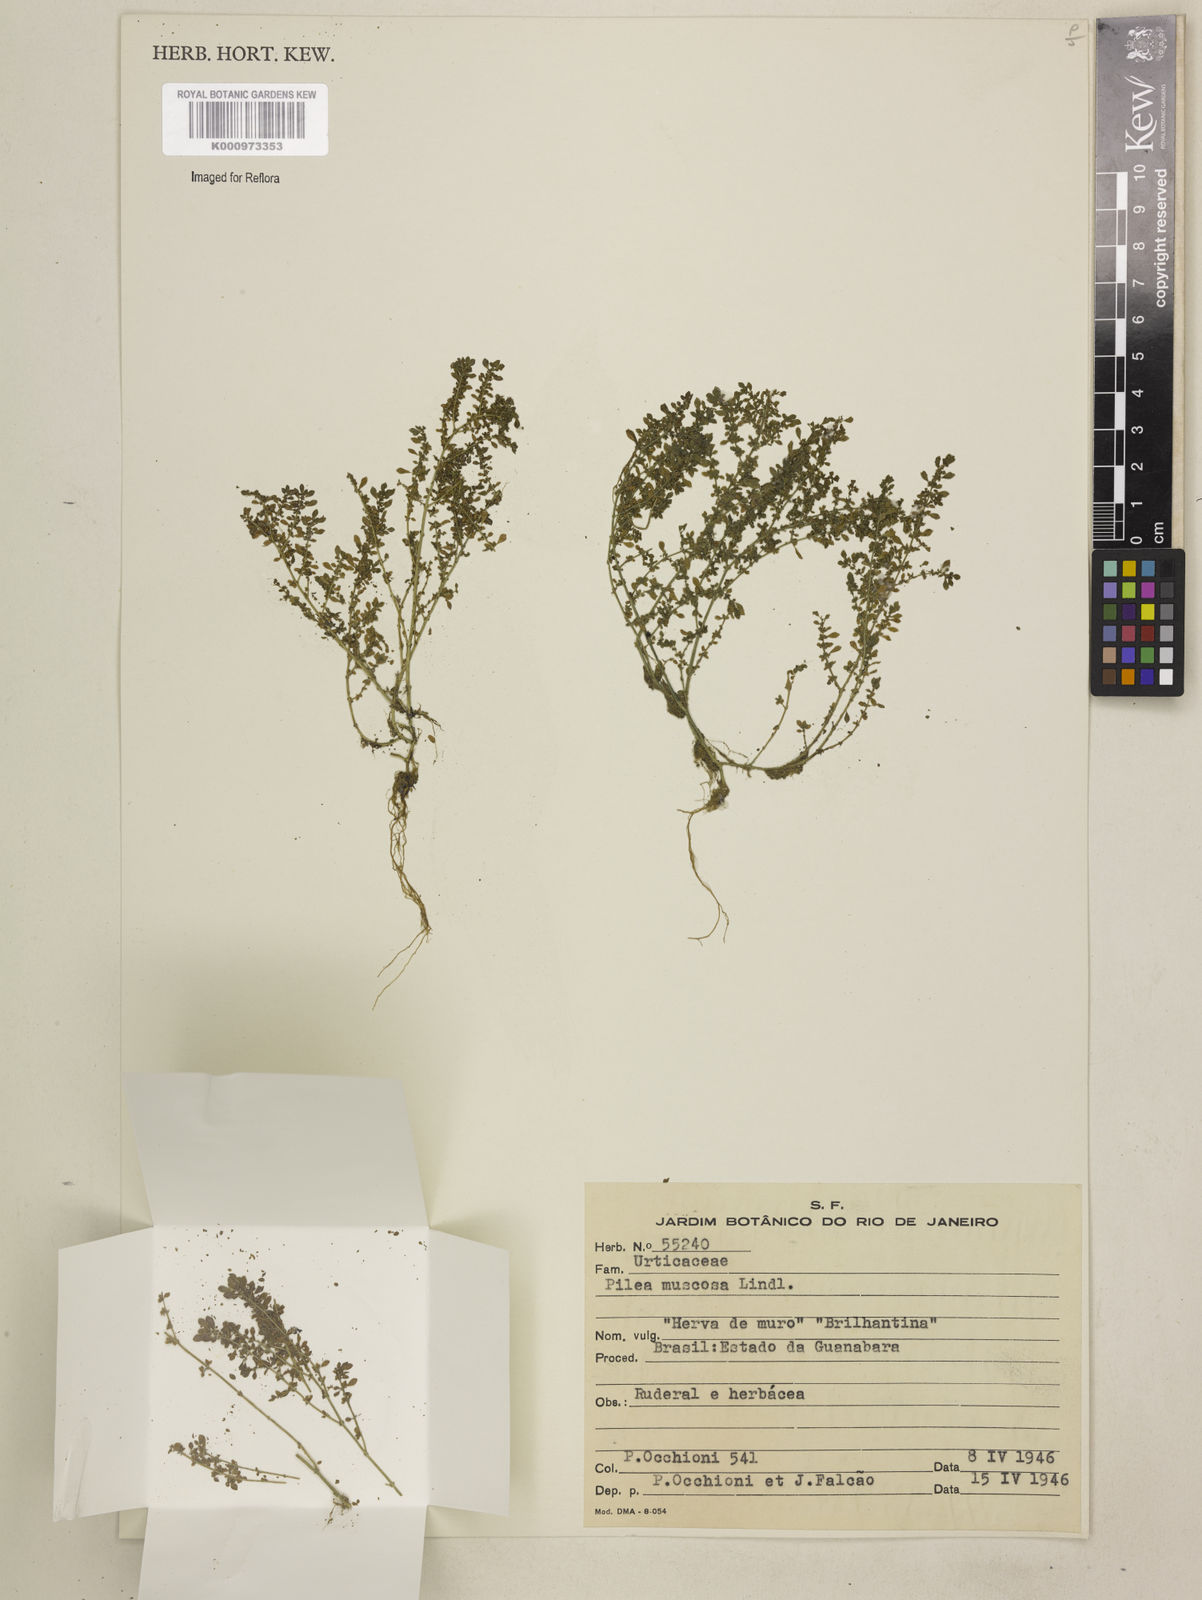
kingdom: Plantae
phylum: Tracheophyta
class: Magnoliopsida
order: Rosales
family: Urticaceae
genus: Pilea
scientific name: Pilea microphylla
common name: Artillery-plant
